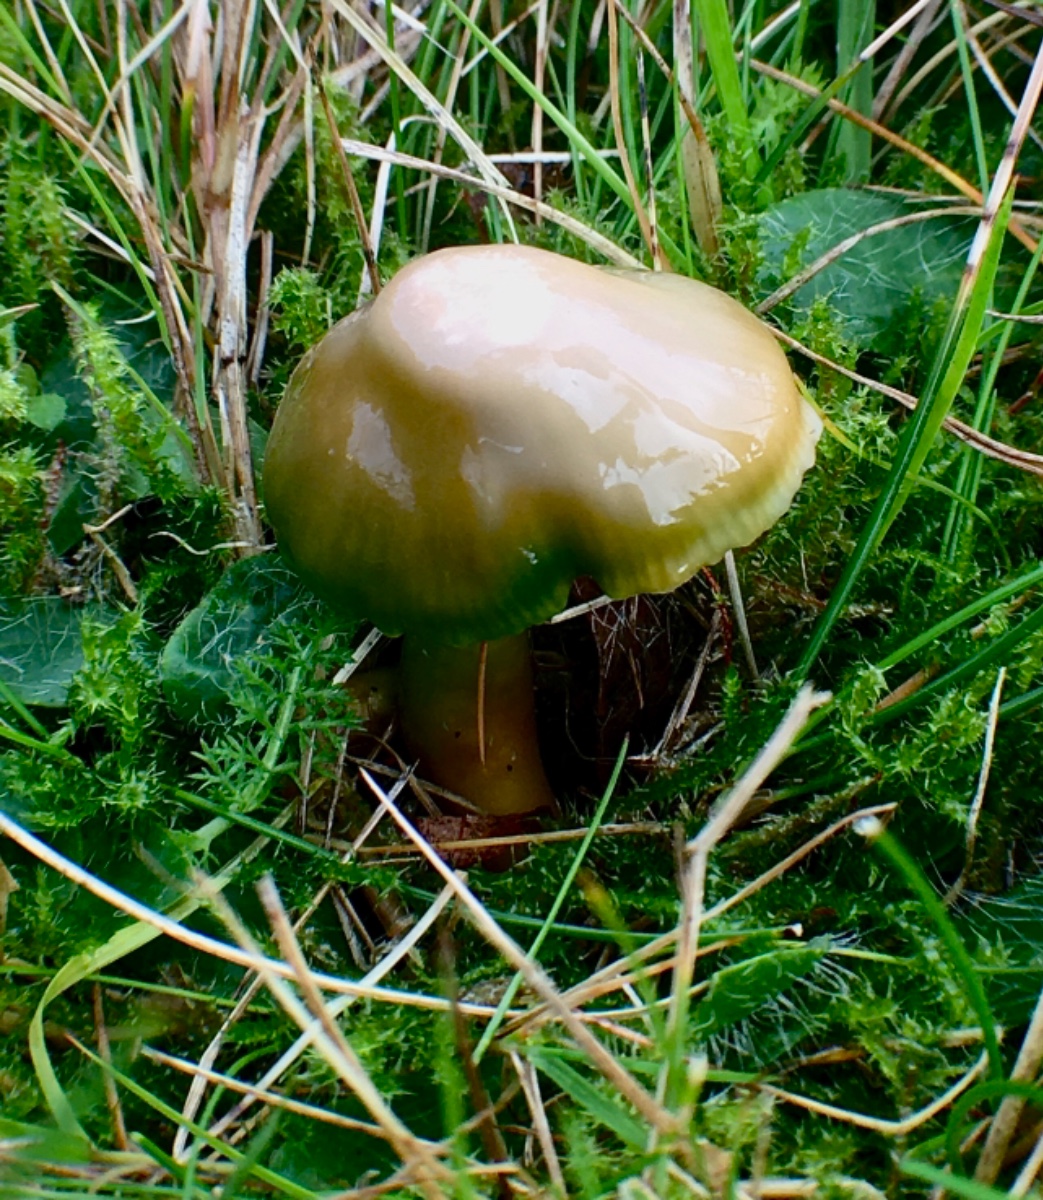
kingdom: Fungi
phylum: Basidiomycota
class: Agaricomycetes
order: Agaricales
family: Hygrophoraceae
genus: Gliophorus
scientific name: Gliophorus psittacinus
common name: papegøje-vokshat
